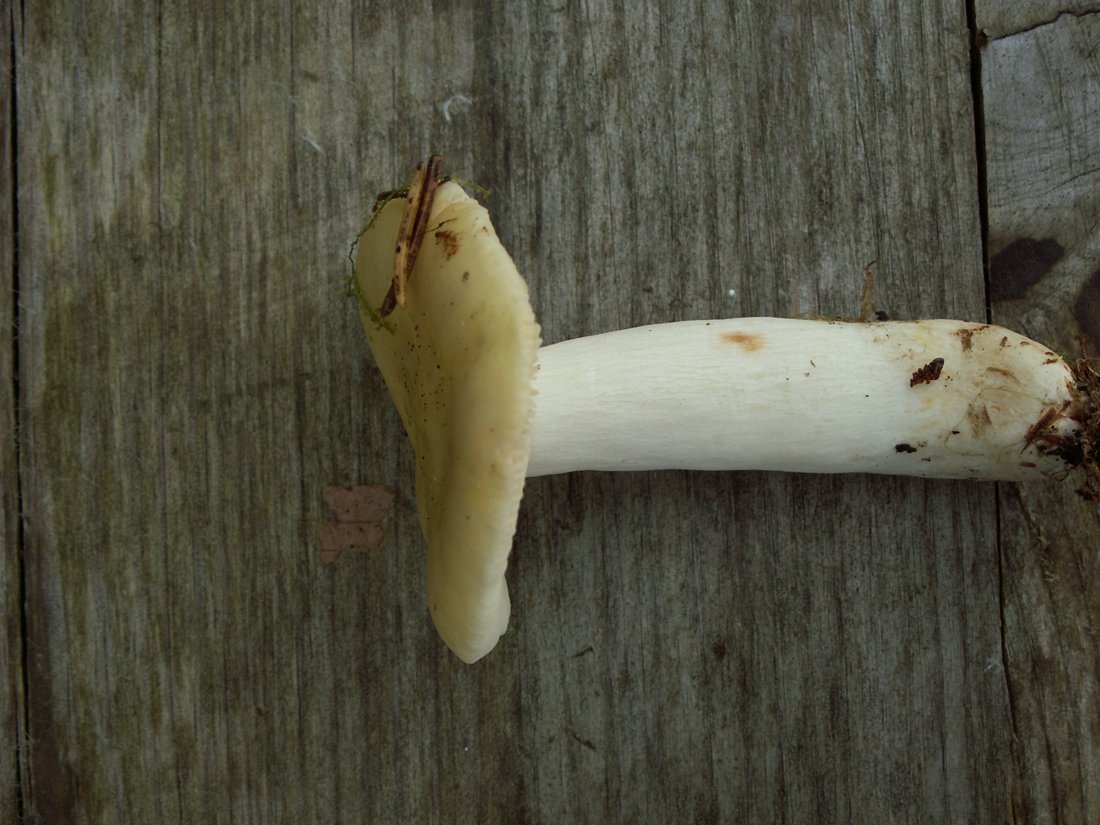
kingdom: Fungi
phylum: Basidiomycota
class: Agaricomycetes
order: Russulales
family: Russulaceae
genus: Russula
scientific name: Russula sardonia
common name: Primrose brittlegill
